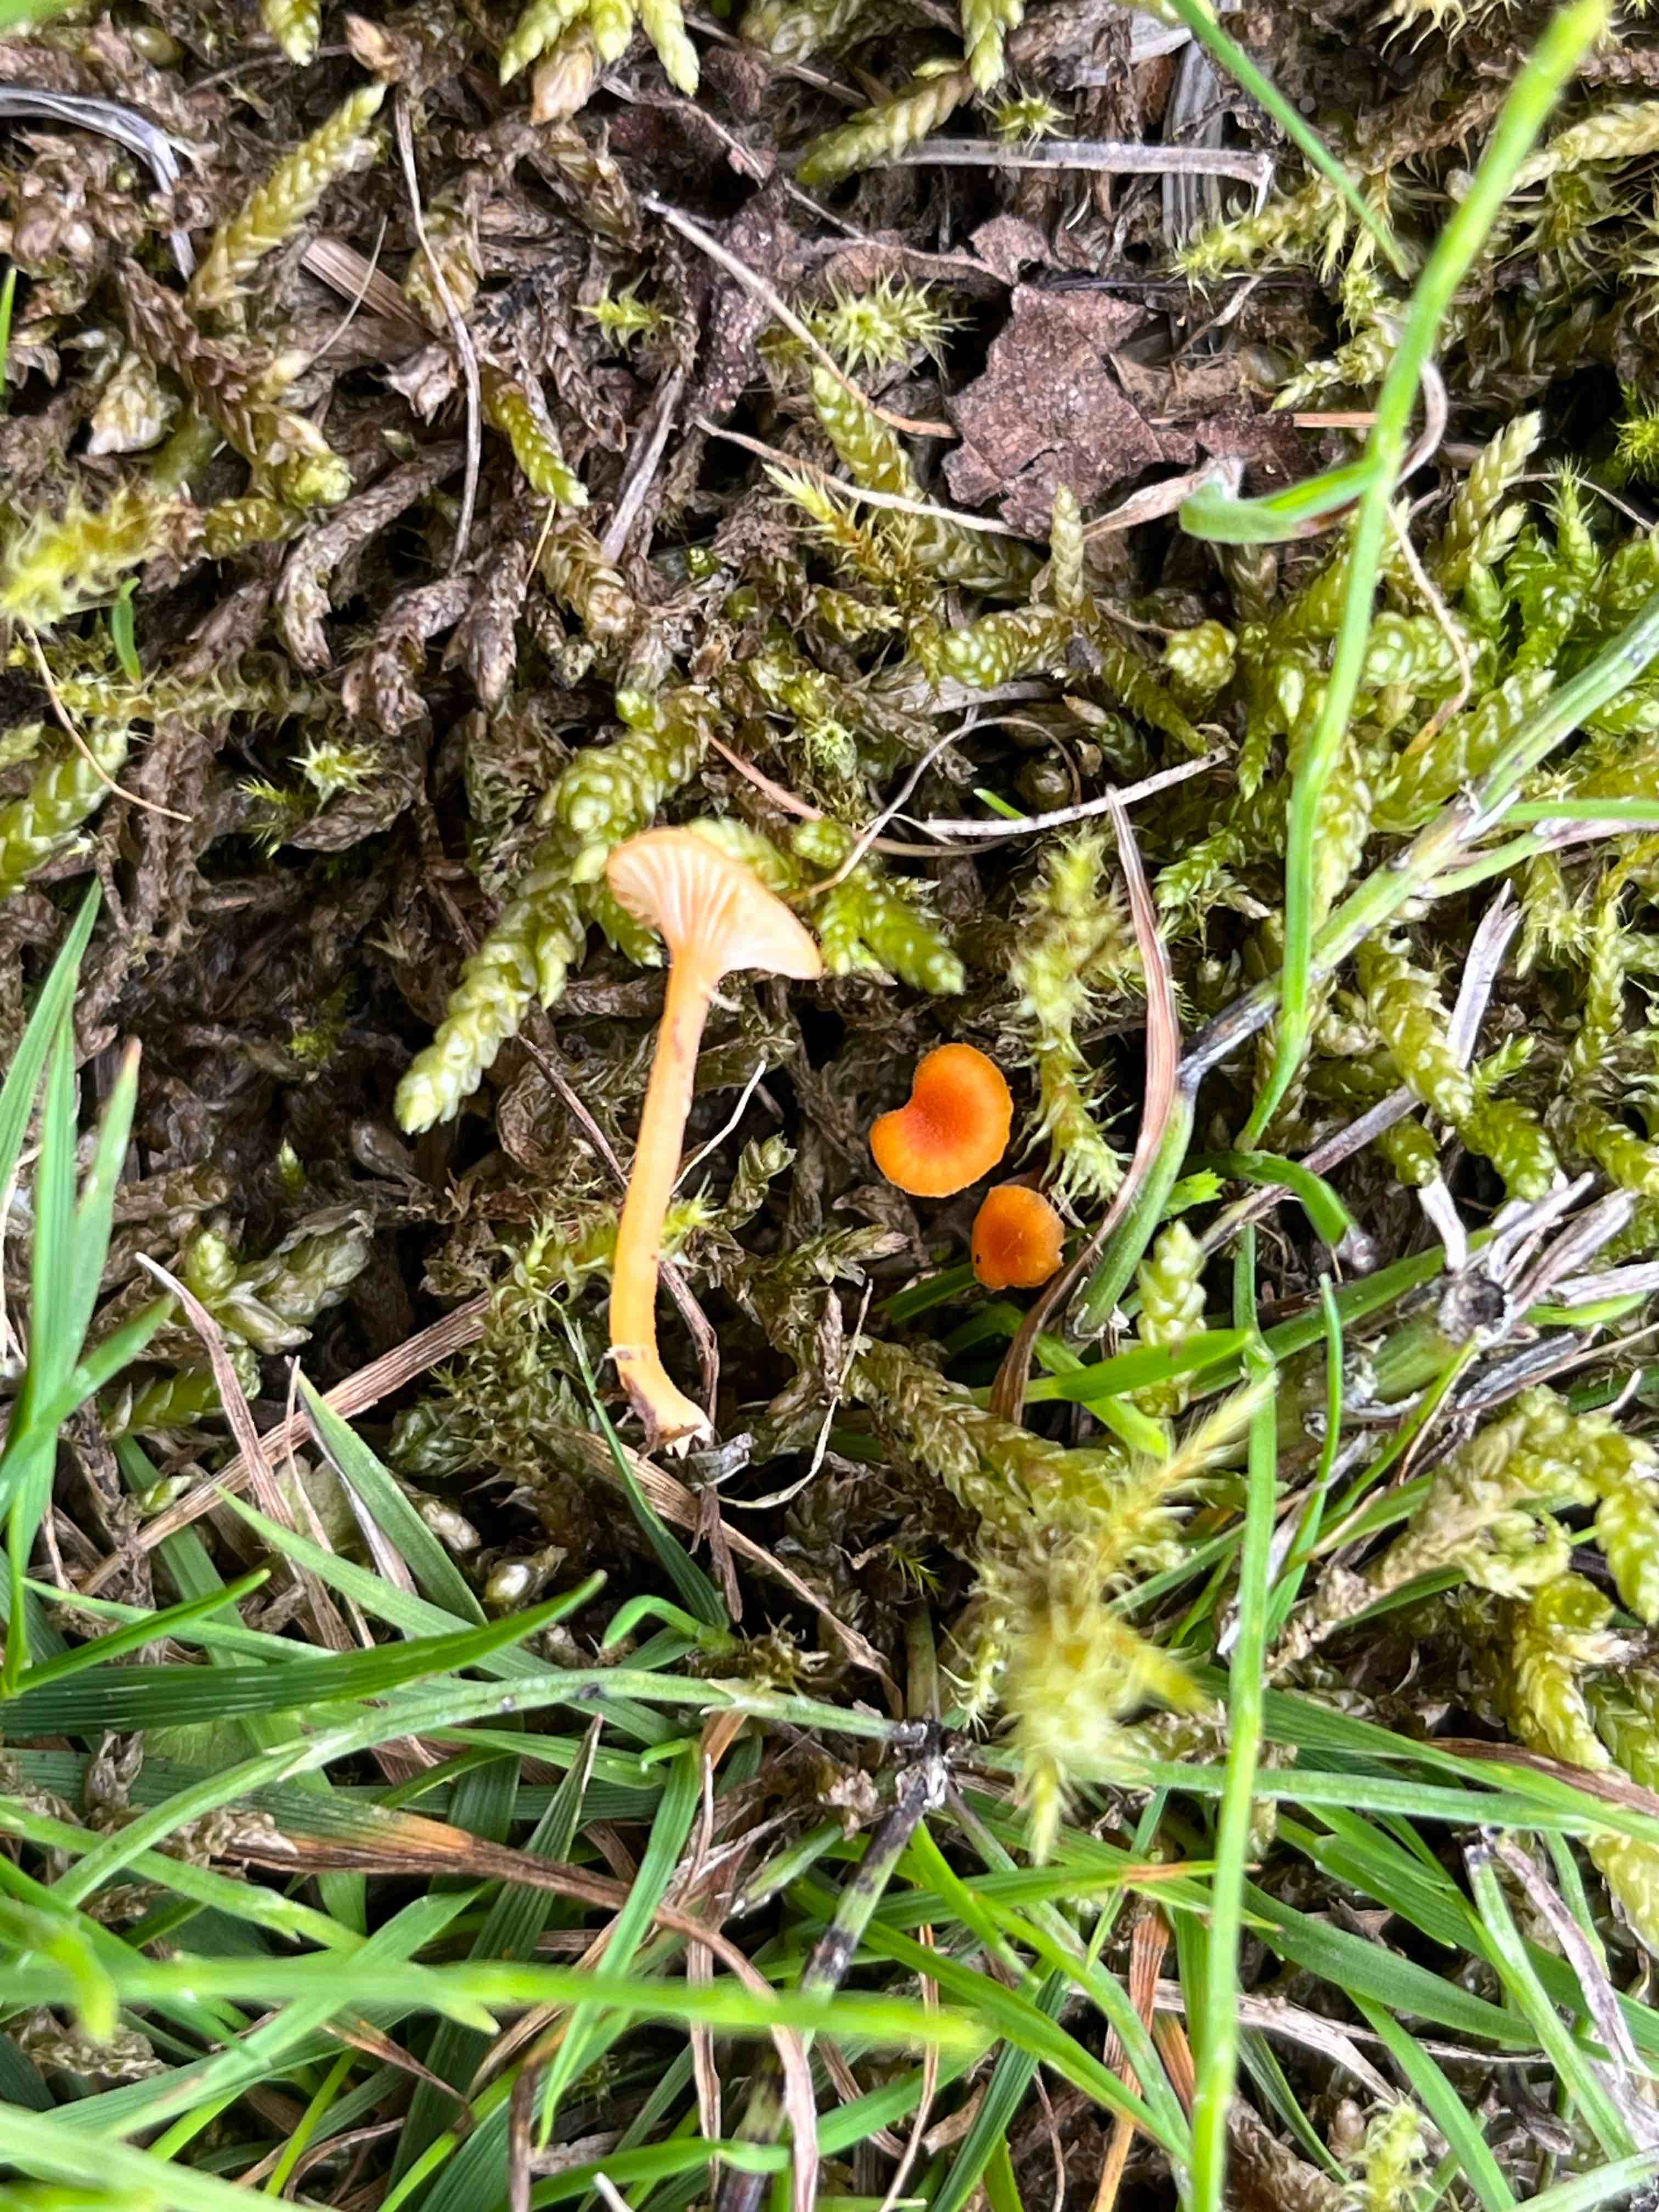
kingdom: Fungi
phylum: Basidiomycota
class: Agaricomycetes
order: Hymenochaetales
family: Rickenellaceae
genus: Rickenella
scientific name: Rickenella fibula
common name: orange mosnavlehat
